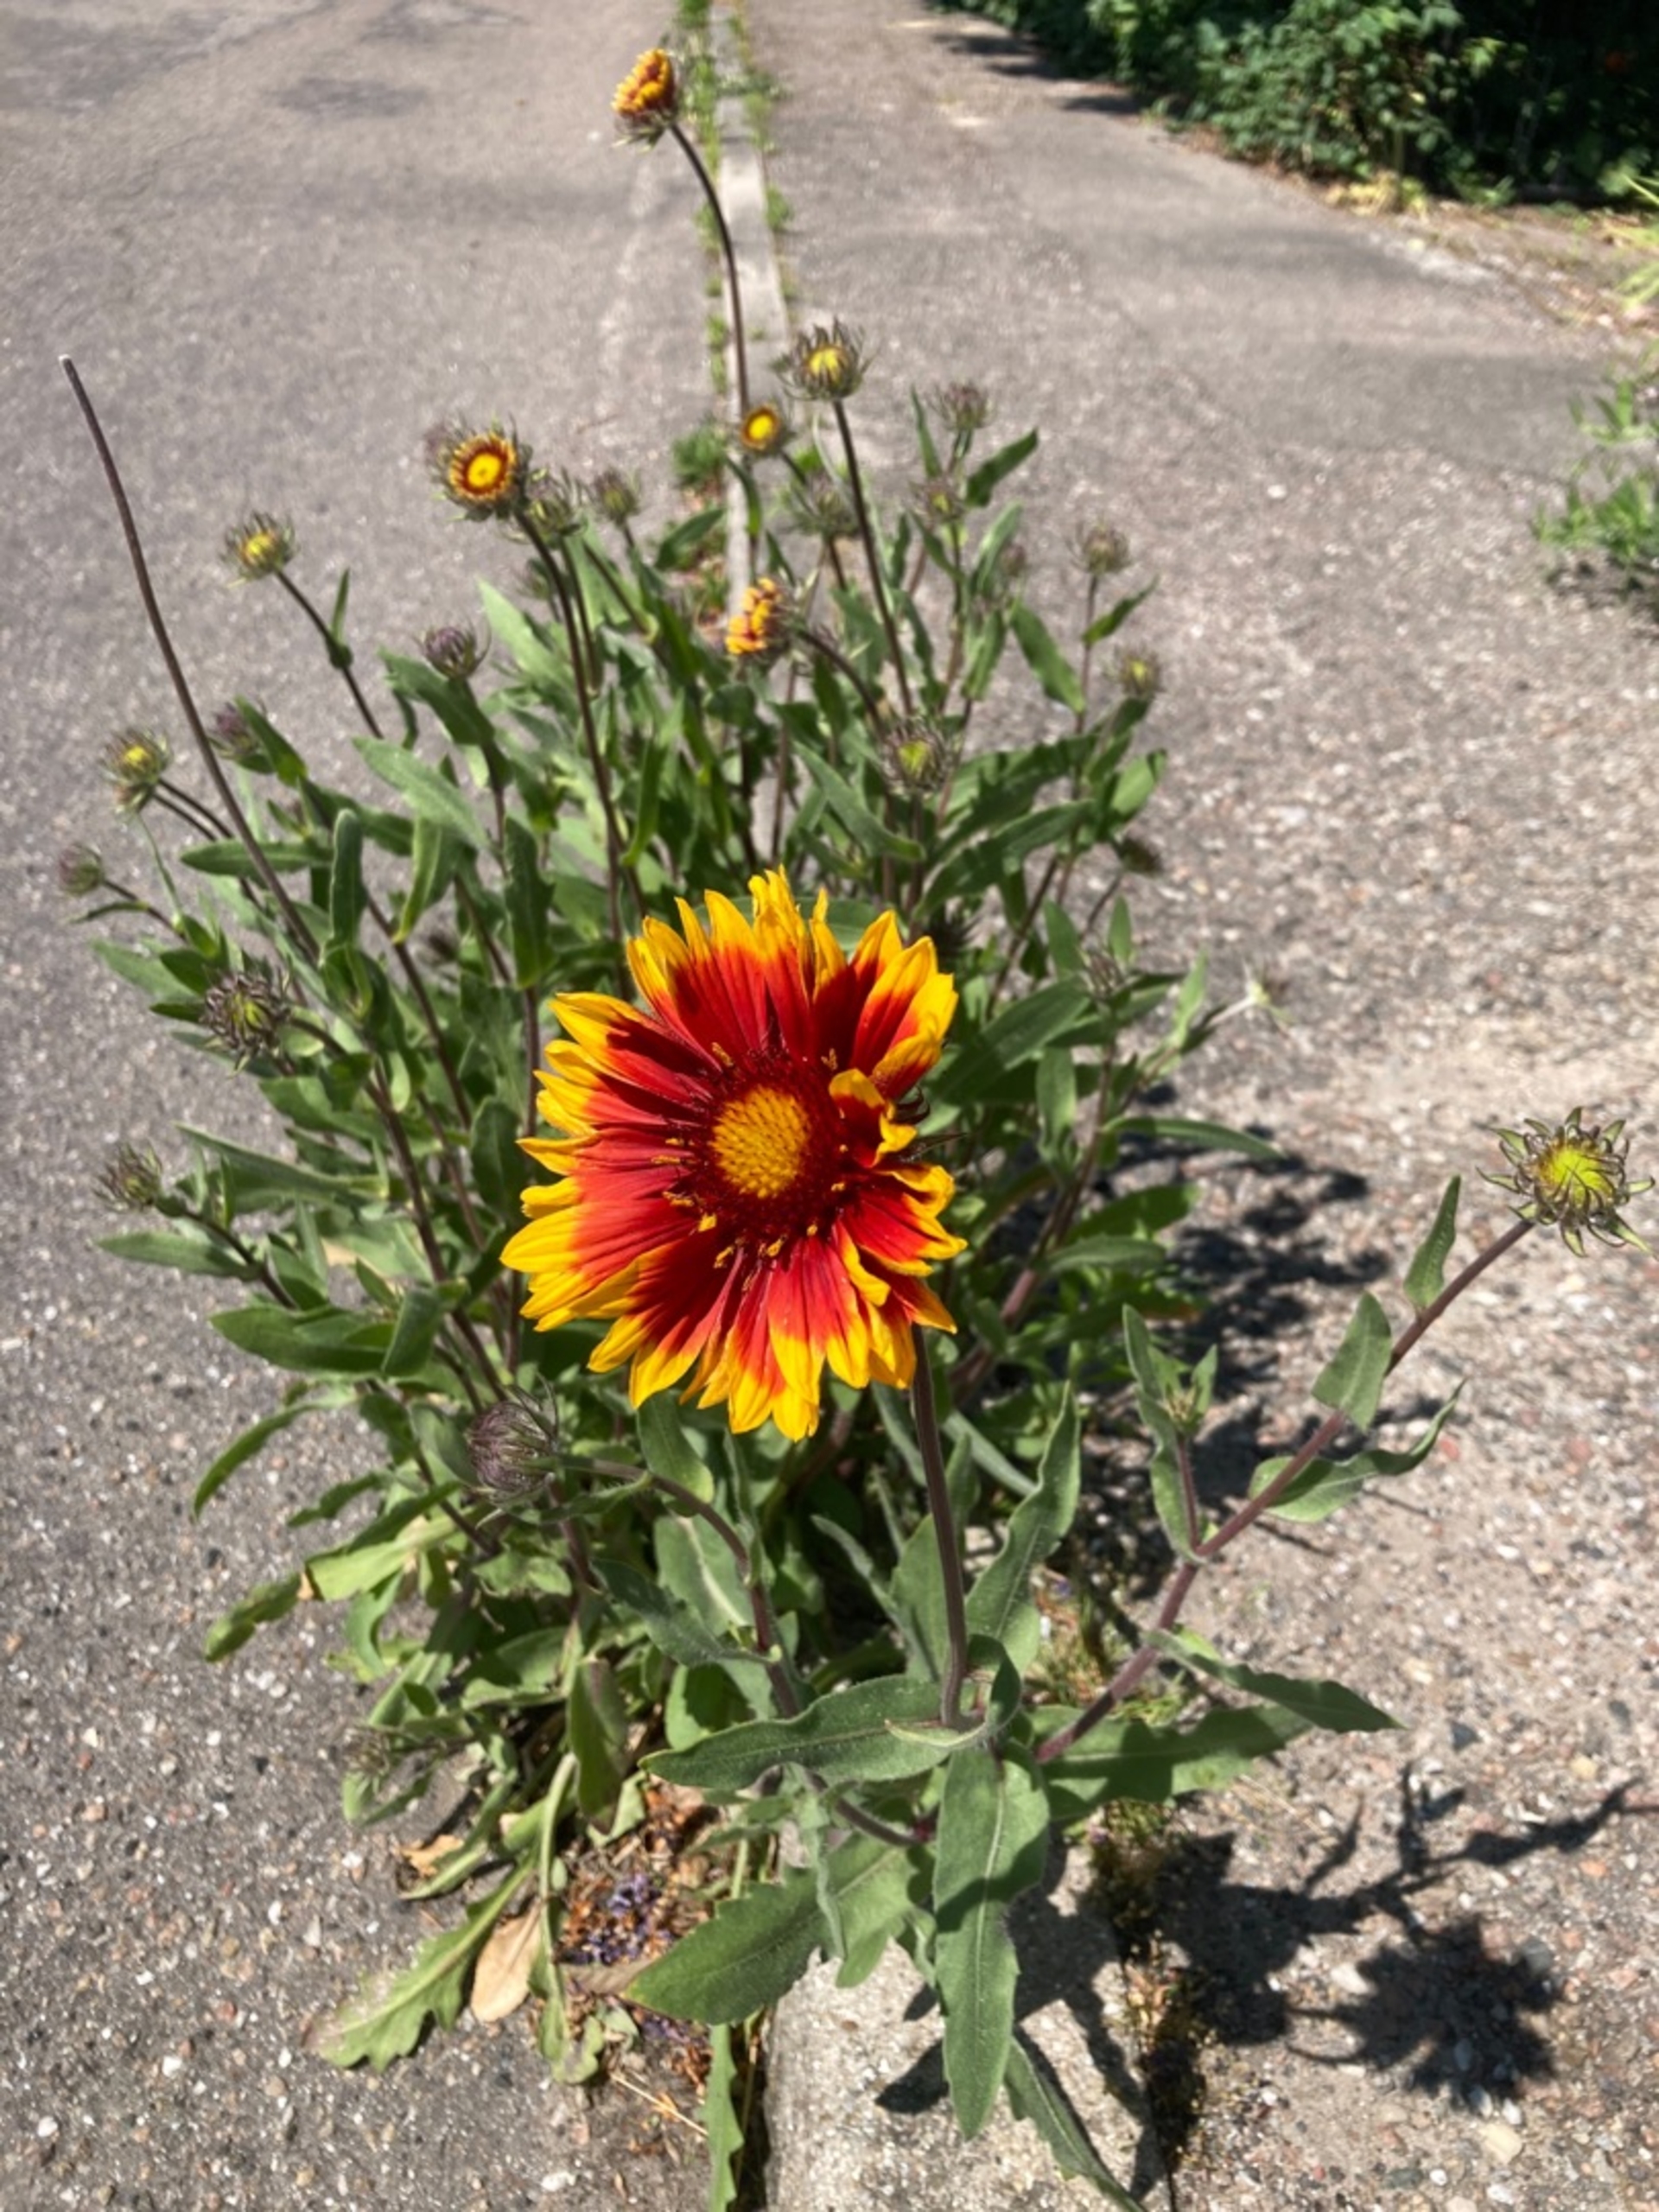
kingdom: Plantae
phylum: Tracheophyta
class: Magnoliopsida
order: Asterales
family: Asteraceae
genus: Gaillardia
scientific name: Gaillardia grandiflora
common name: Kokardeblomst
